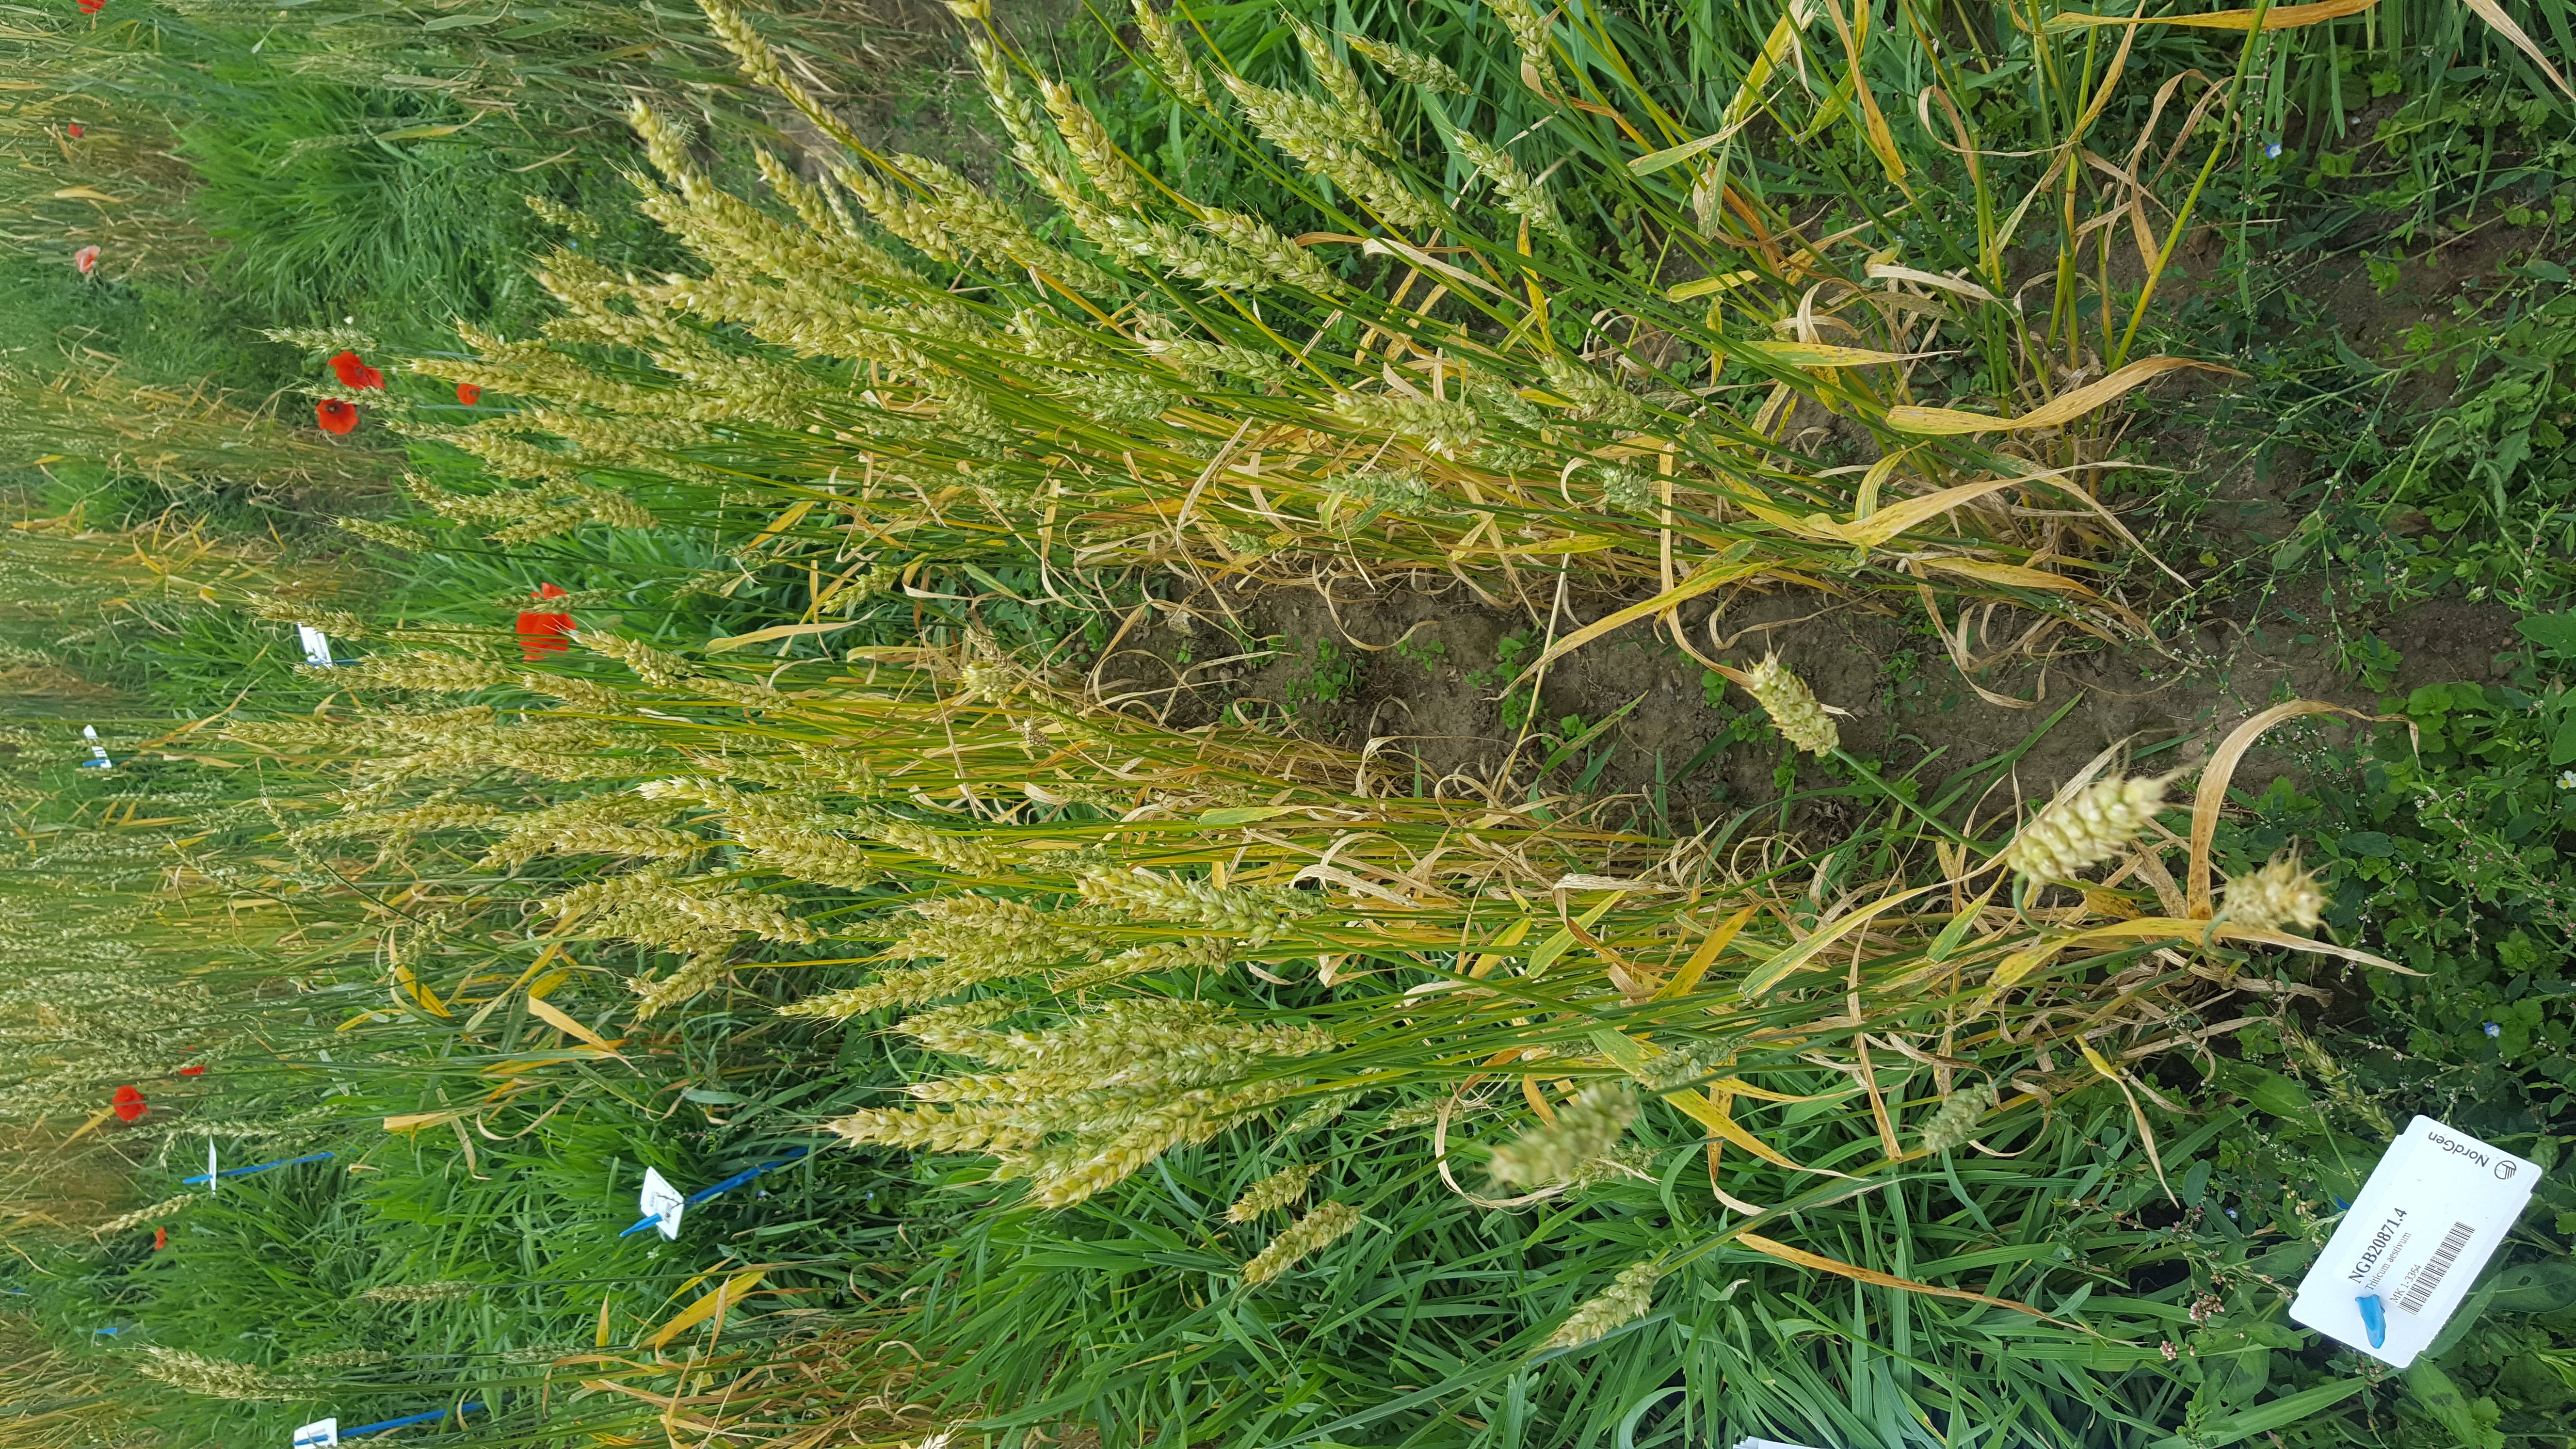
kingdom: Plantae
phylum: Tracheophyta
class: Liliopsida
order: Poales
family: Poaceae
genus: Triticum
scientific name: Triticum aestivum
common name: Common wheat
